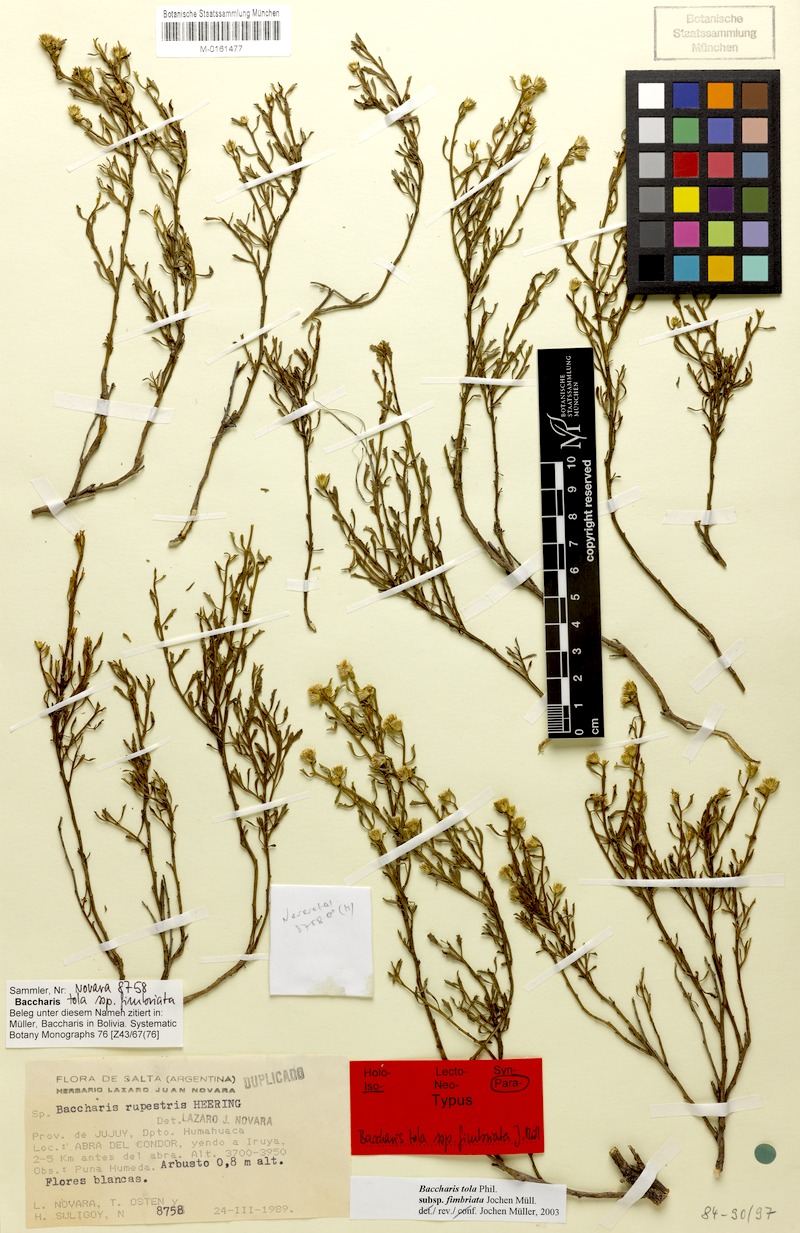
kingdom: Plantae
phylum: Tracheophyta
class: Magnoliopsida
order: Asterales
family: Asteraceae
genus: Baccharis
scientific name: Baccharis fimbriata
